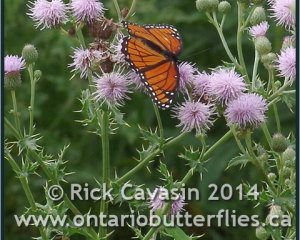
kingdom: Animalia
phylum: Arthropoda
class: Insecta
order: Lepidoptera
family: Nymphalidae
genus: Limenitis
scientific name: Limenitis archippus
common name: Viceroy
